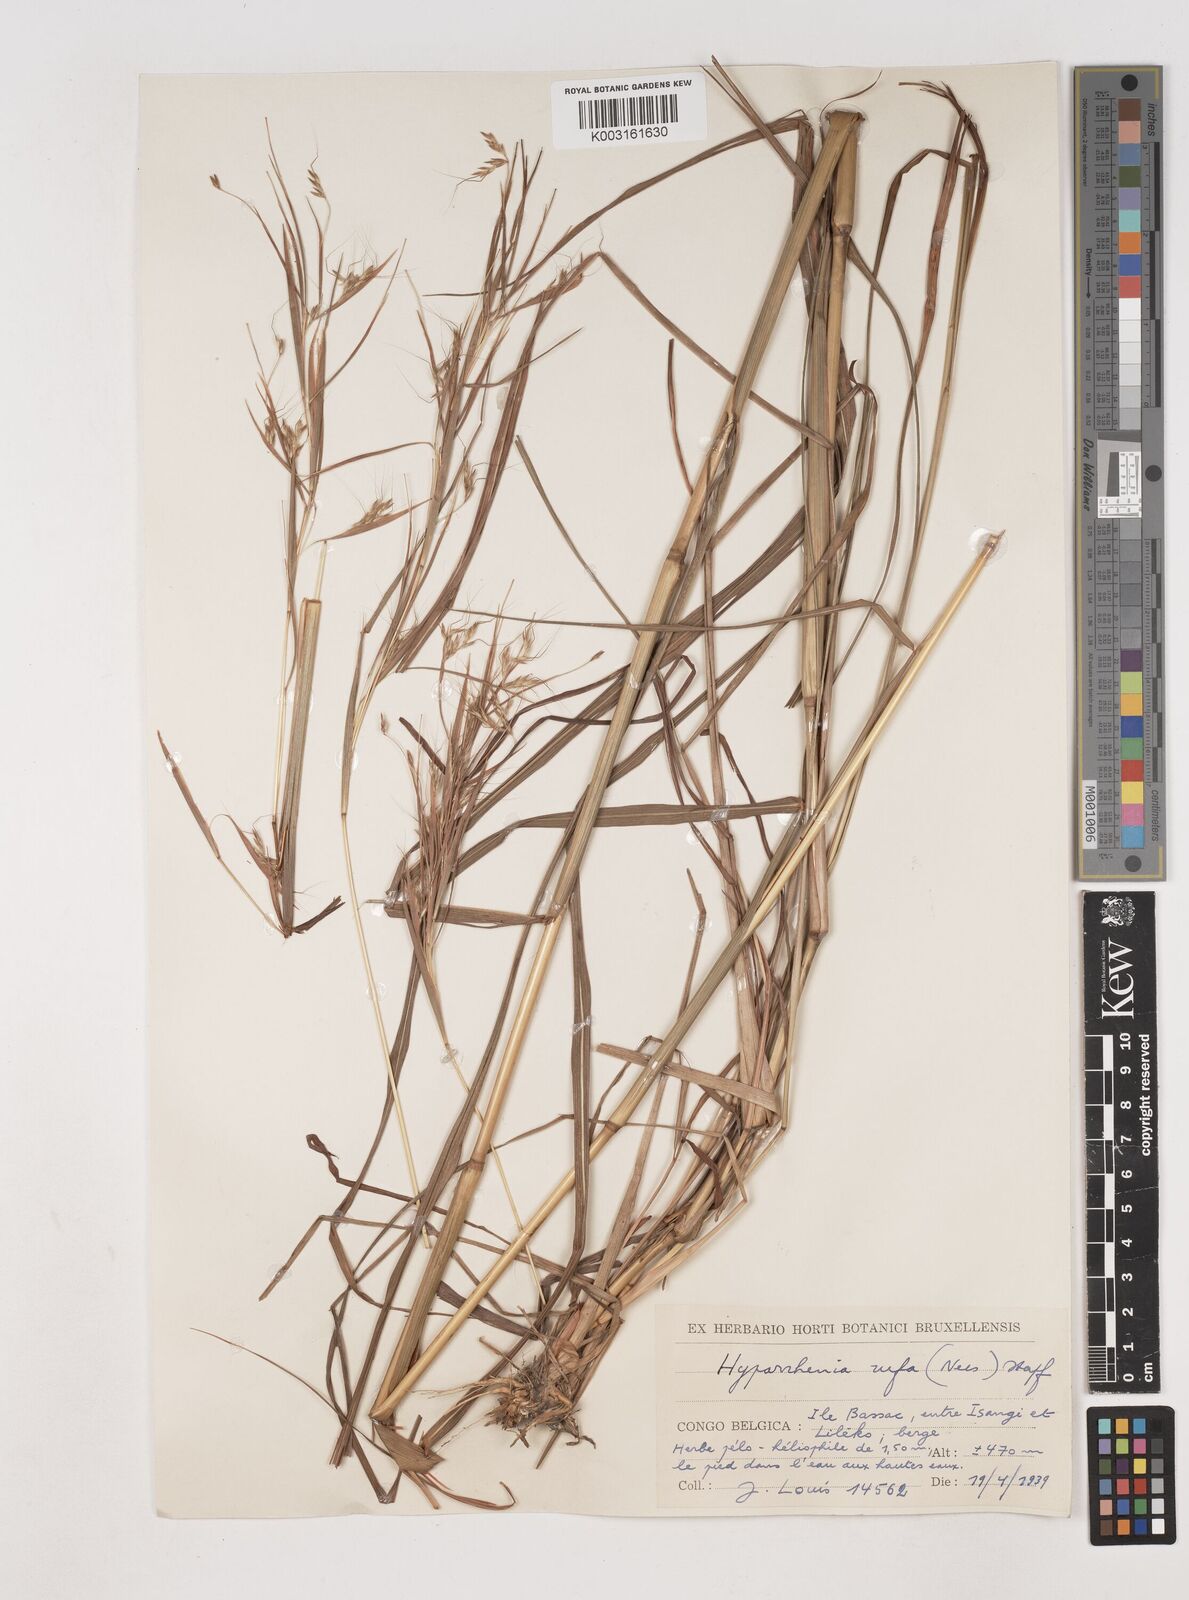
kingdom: Plantae
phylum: Tracheophyta
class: Liliopsida
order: Poales
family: Poaceae
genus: Hyparrhenia
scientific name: Hyparrhenia rufa
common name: Jaraguagrass
